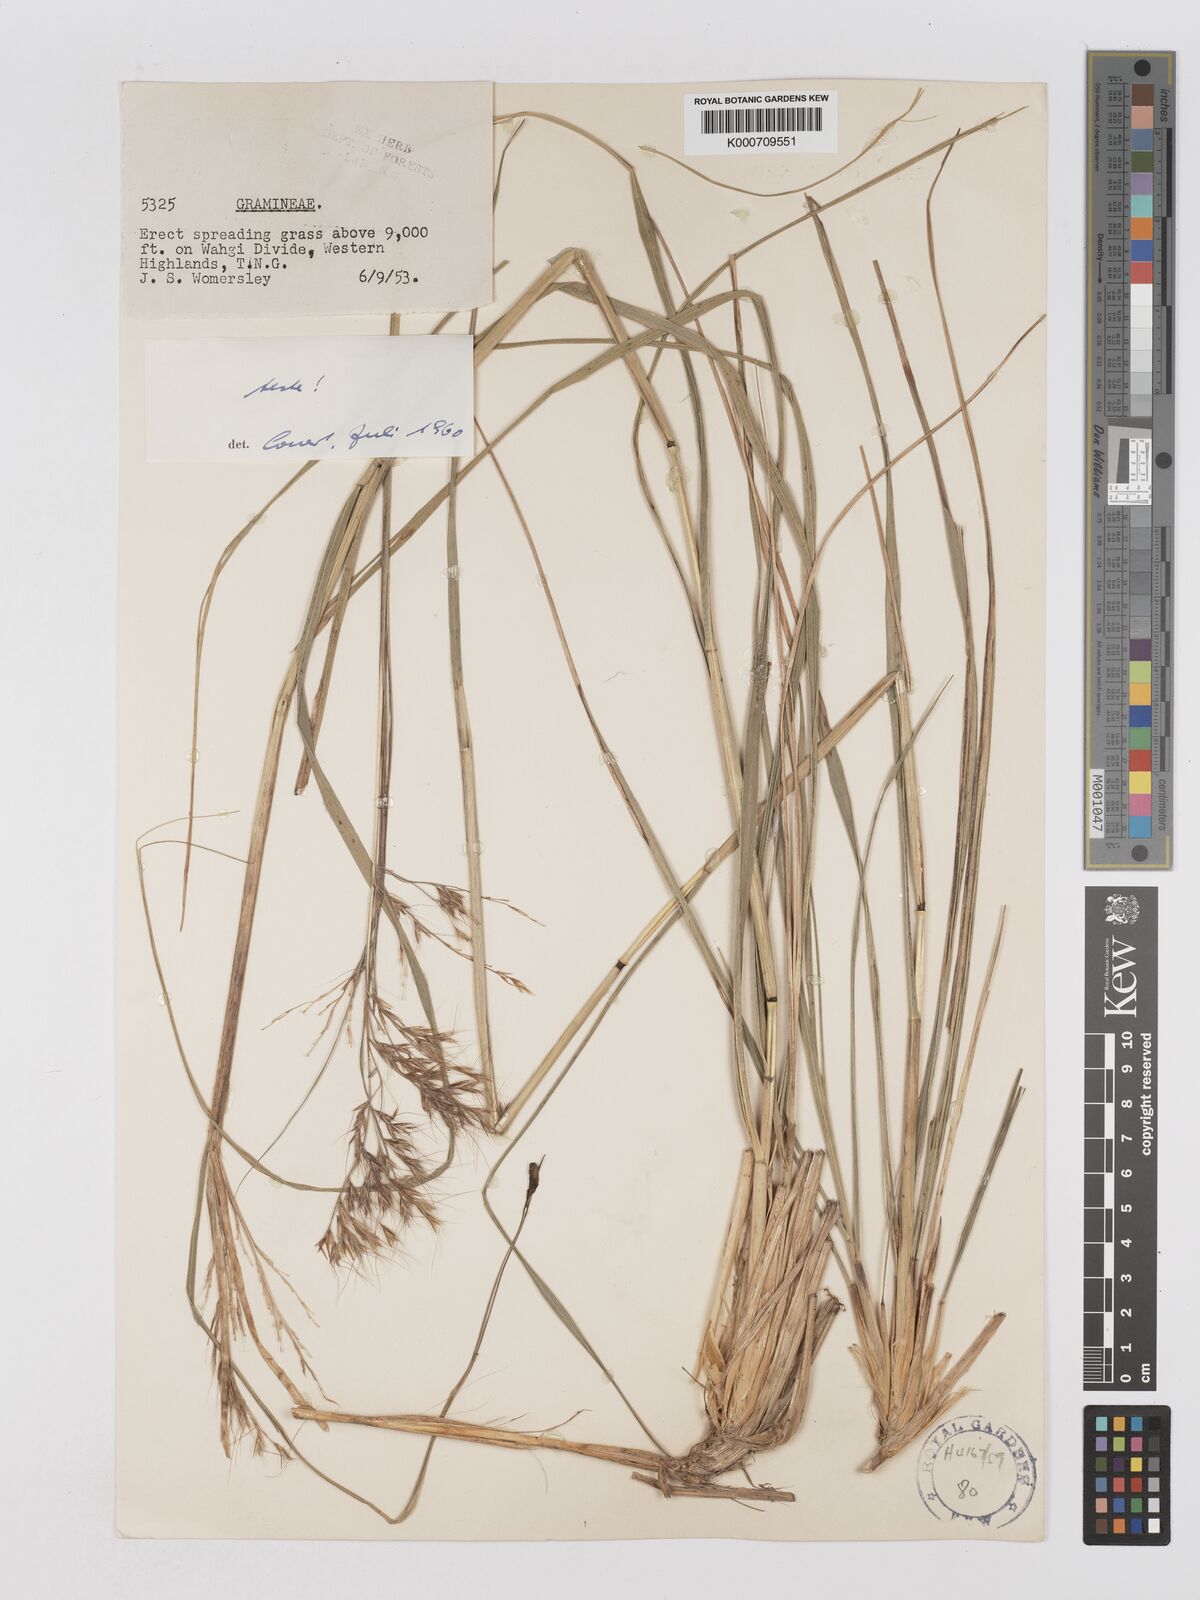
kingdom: Plantae
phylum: Tracheophyta
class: Liliopsida
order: Poales
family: Poaceae
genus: Chimaerochloa
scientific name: Chimaerochloa archboldii
